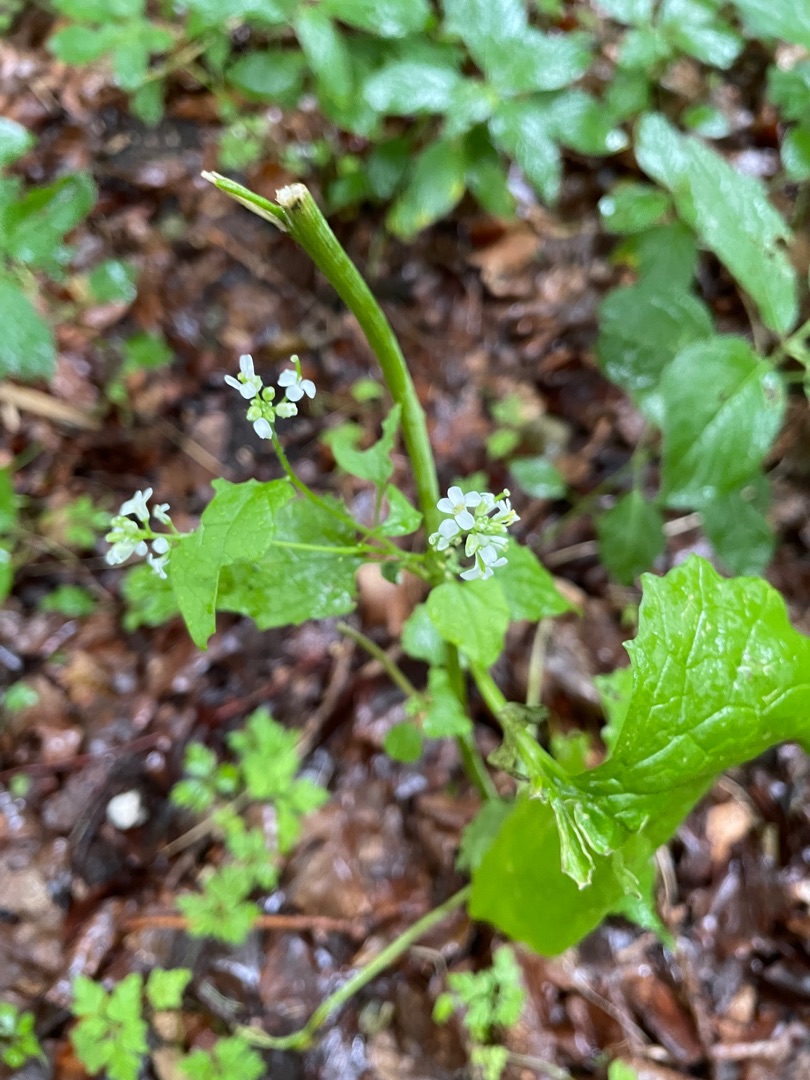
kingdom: Plantae
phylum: Tracheophyta
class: Magnoliopsida
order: Brassicales
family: Brassicaceae
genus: Alliaria
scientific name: Alliaria petiolata
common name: Løgkarse
